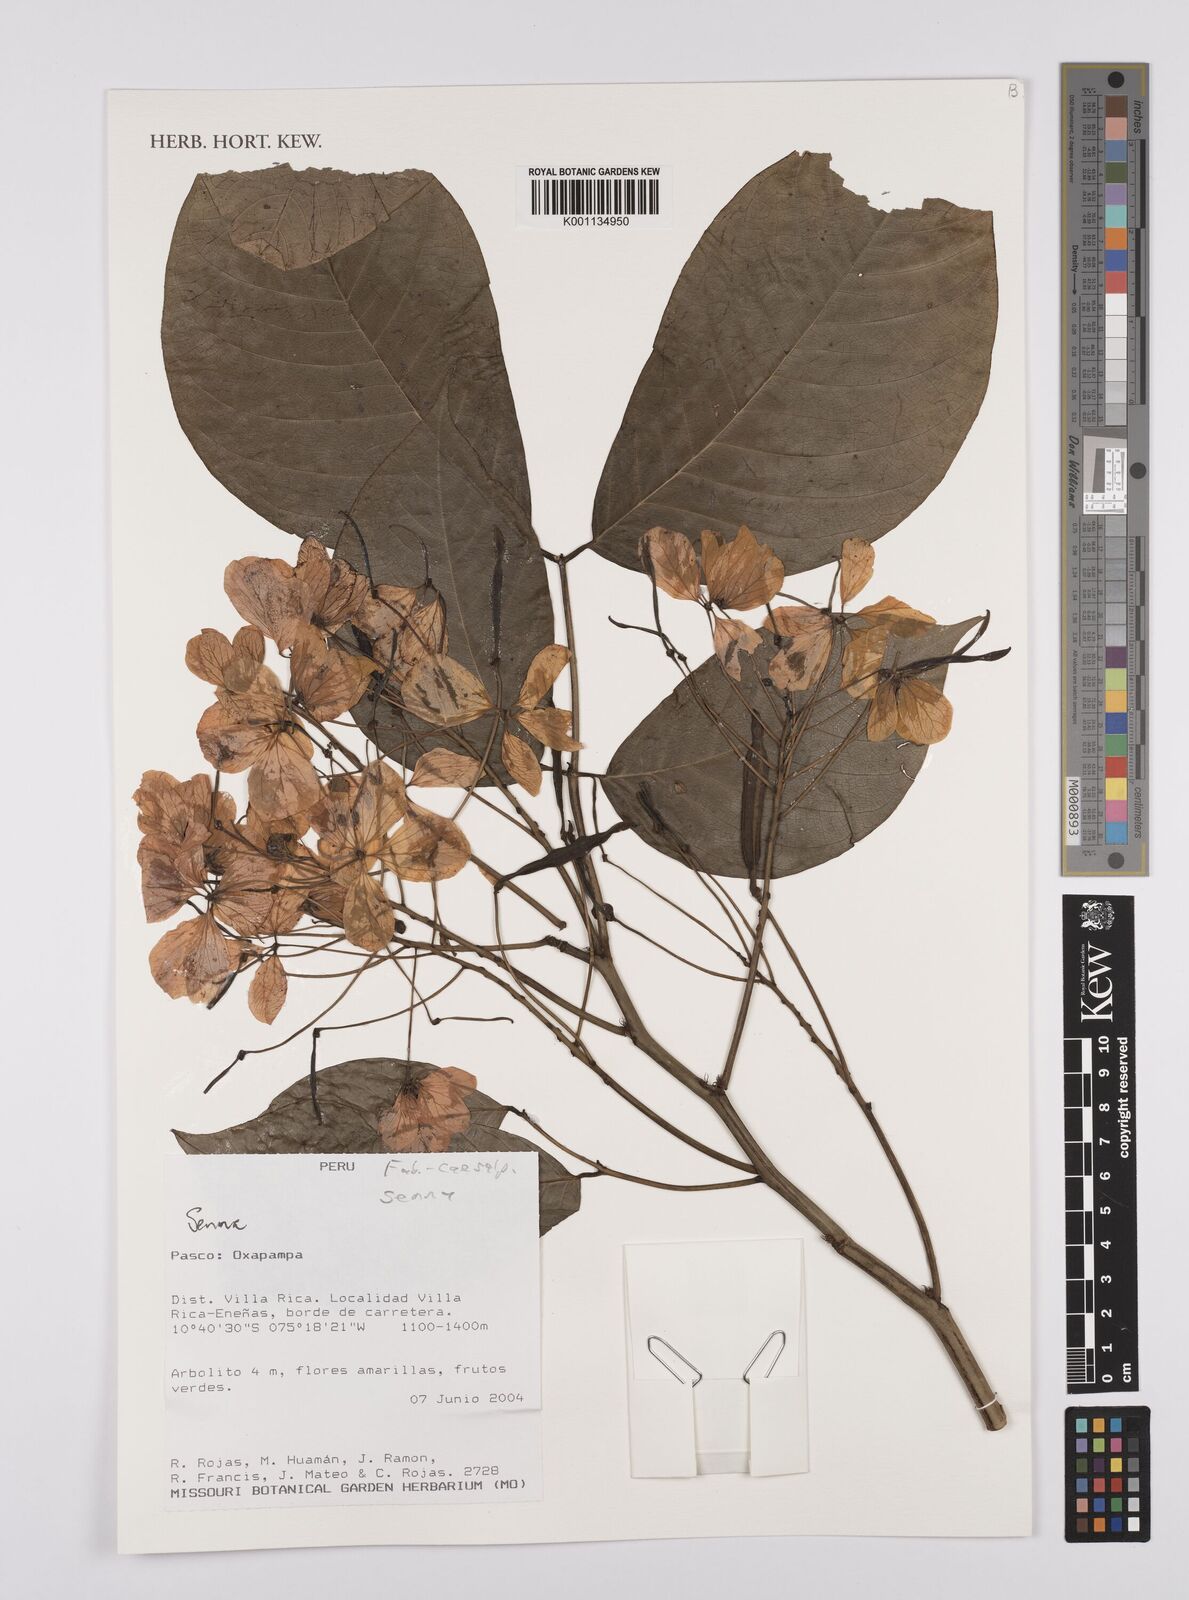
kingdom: Plantae
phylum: Tracheophyta
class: Magnoliopsida
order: Fabales
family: Fabaceae
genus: Senna
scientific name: Senna
